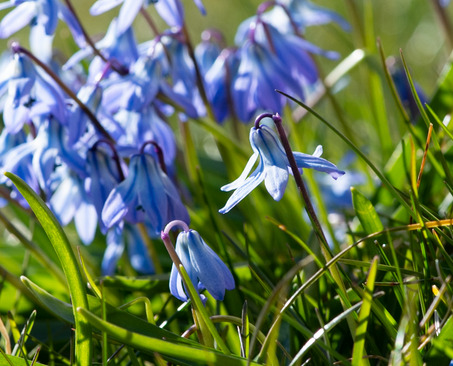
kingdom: Plantae
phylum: Tracheophyta
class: Liliopsida
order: Asparagales
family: Asparagaceae
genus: Scilla
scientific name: Scilla siberica
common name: Russisk skilla
